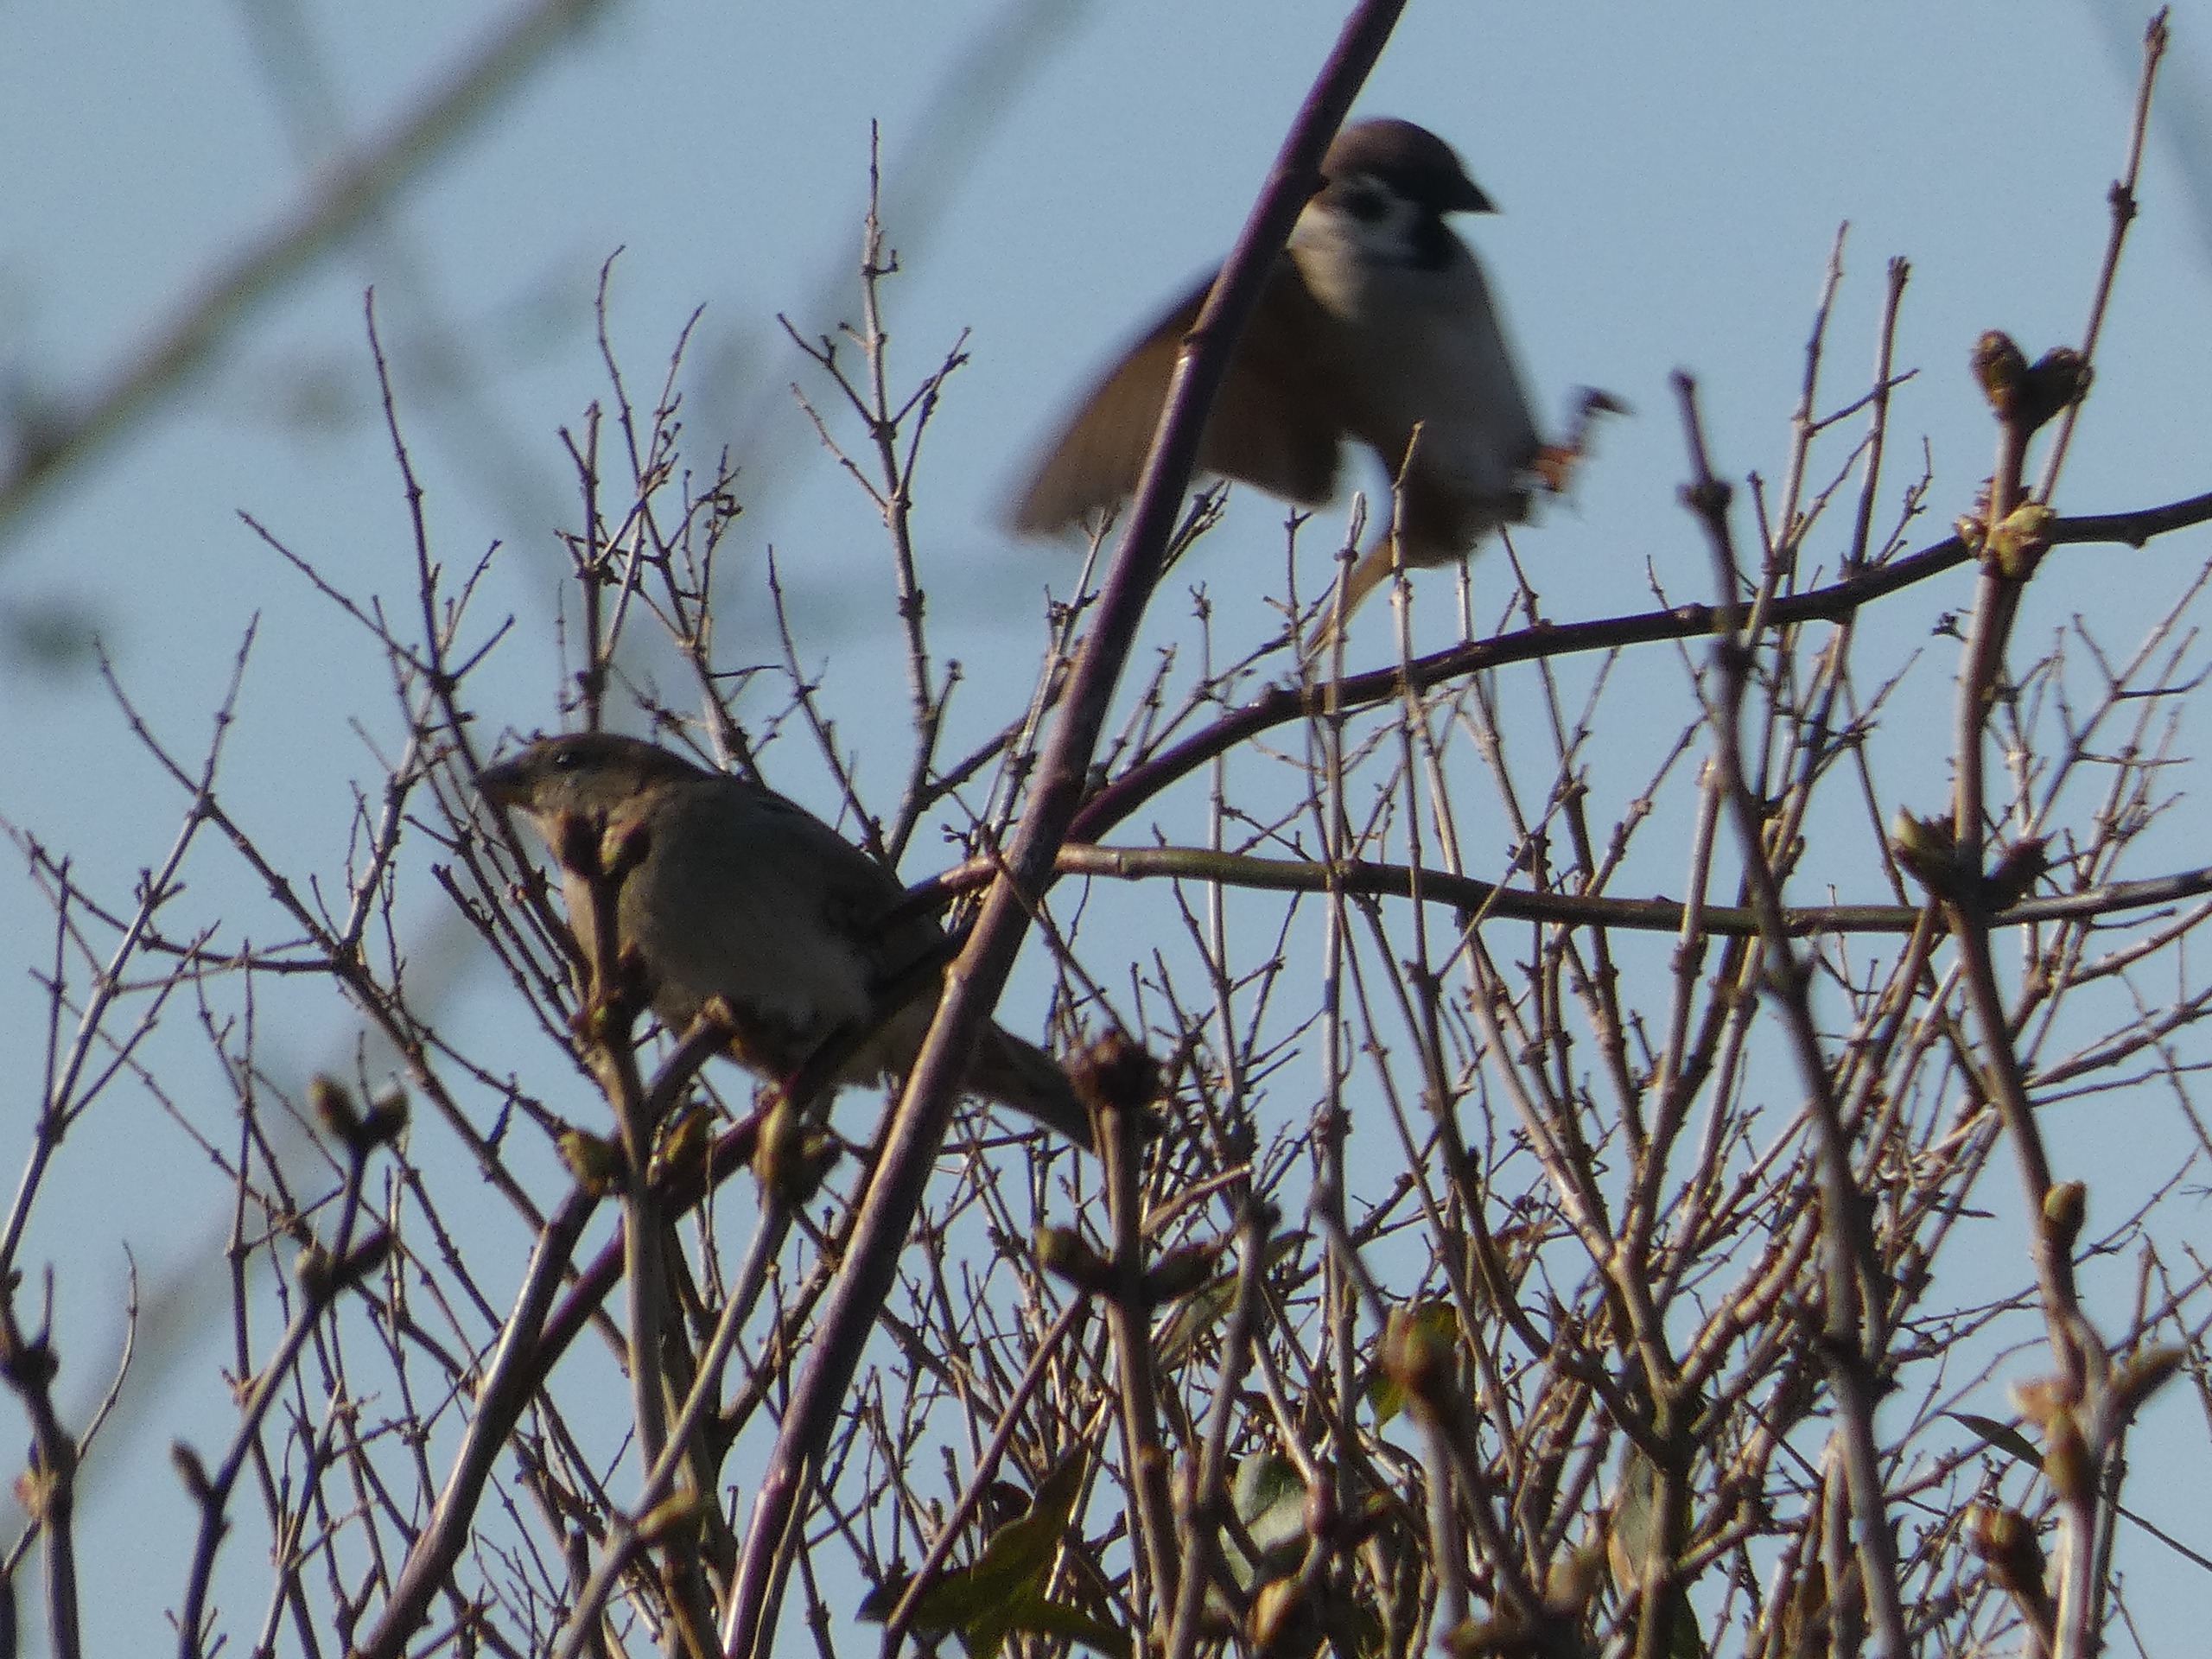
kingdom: Animalia
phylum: Chordata
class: Aves
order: Passeriformes
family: Passeridae
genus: Passer
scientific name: Passer montanus
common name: Skovspurv
